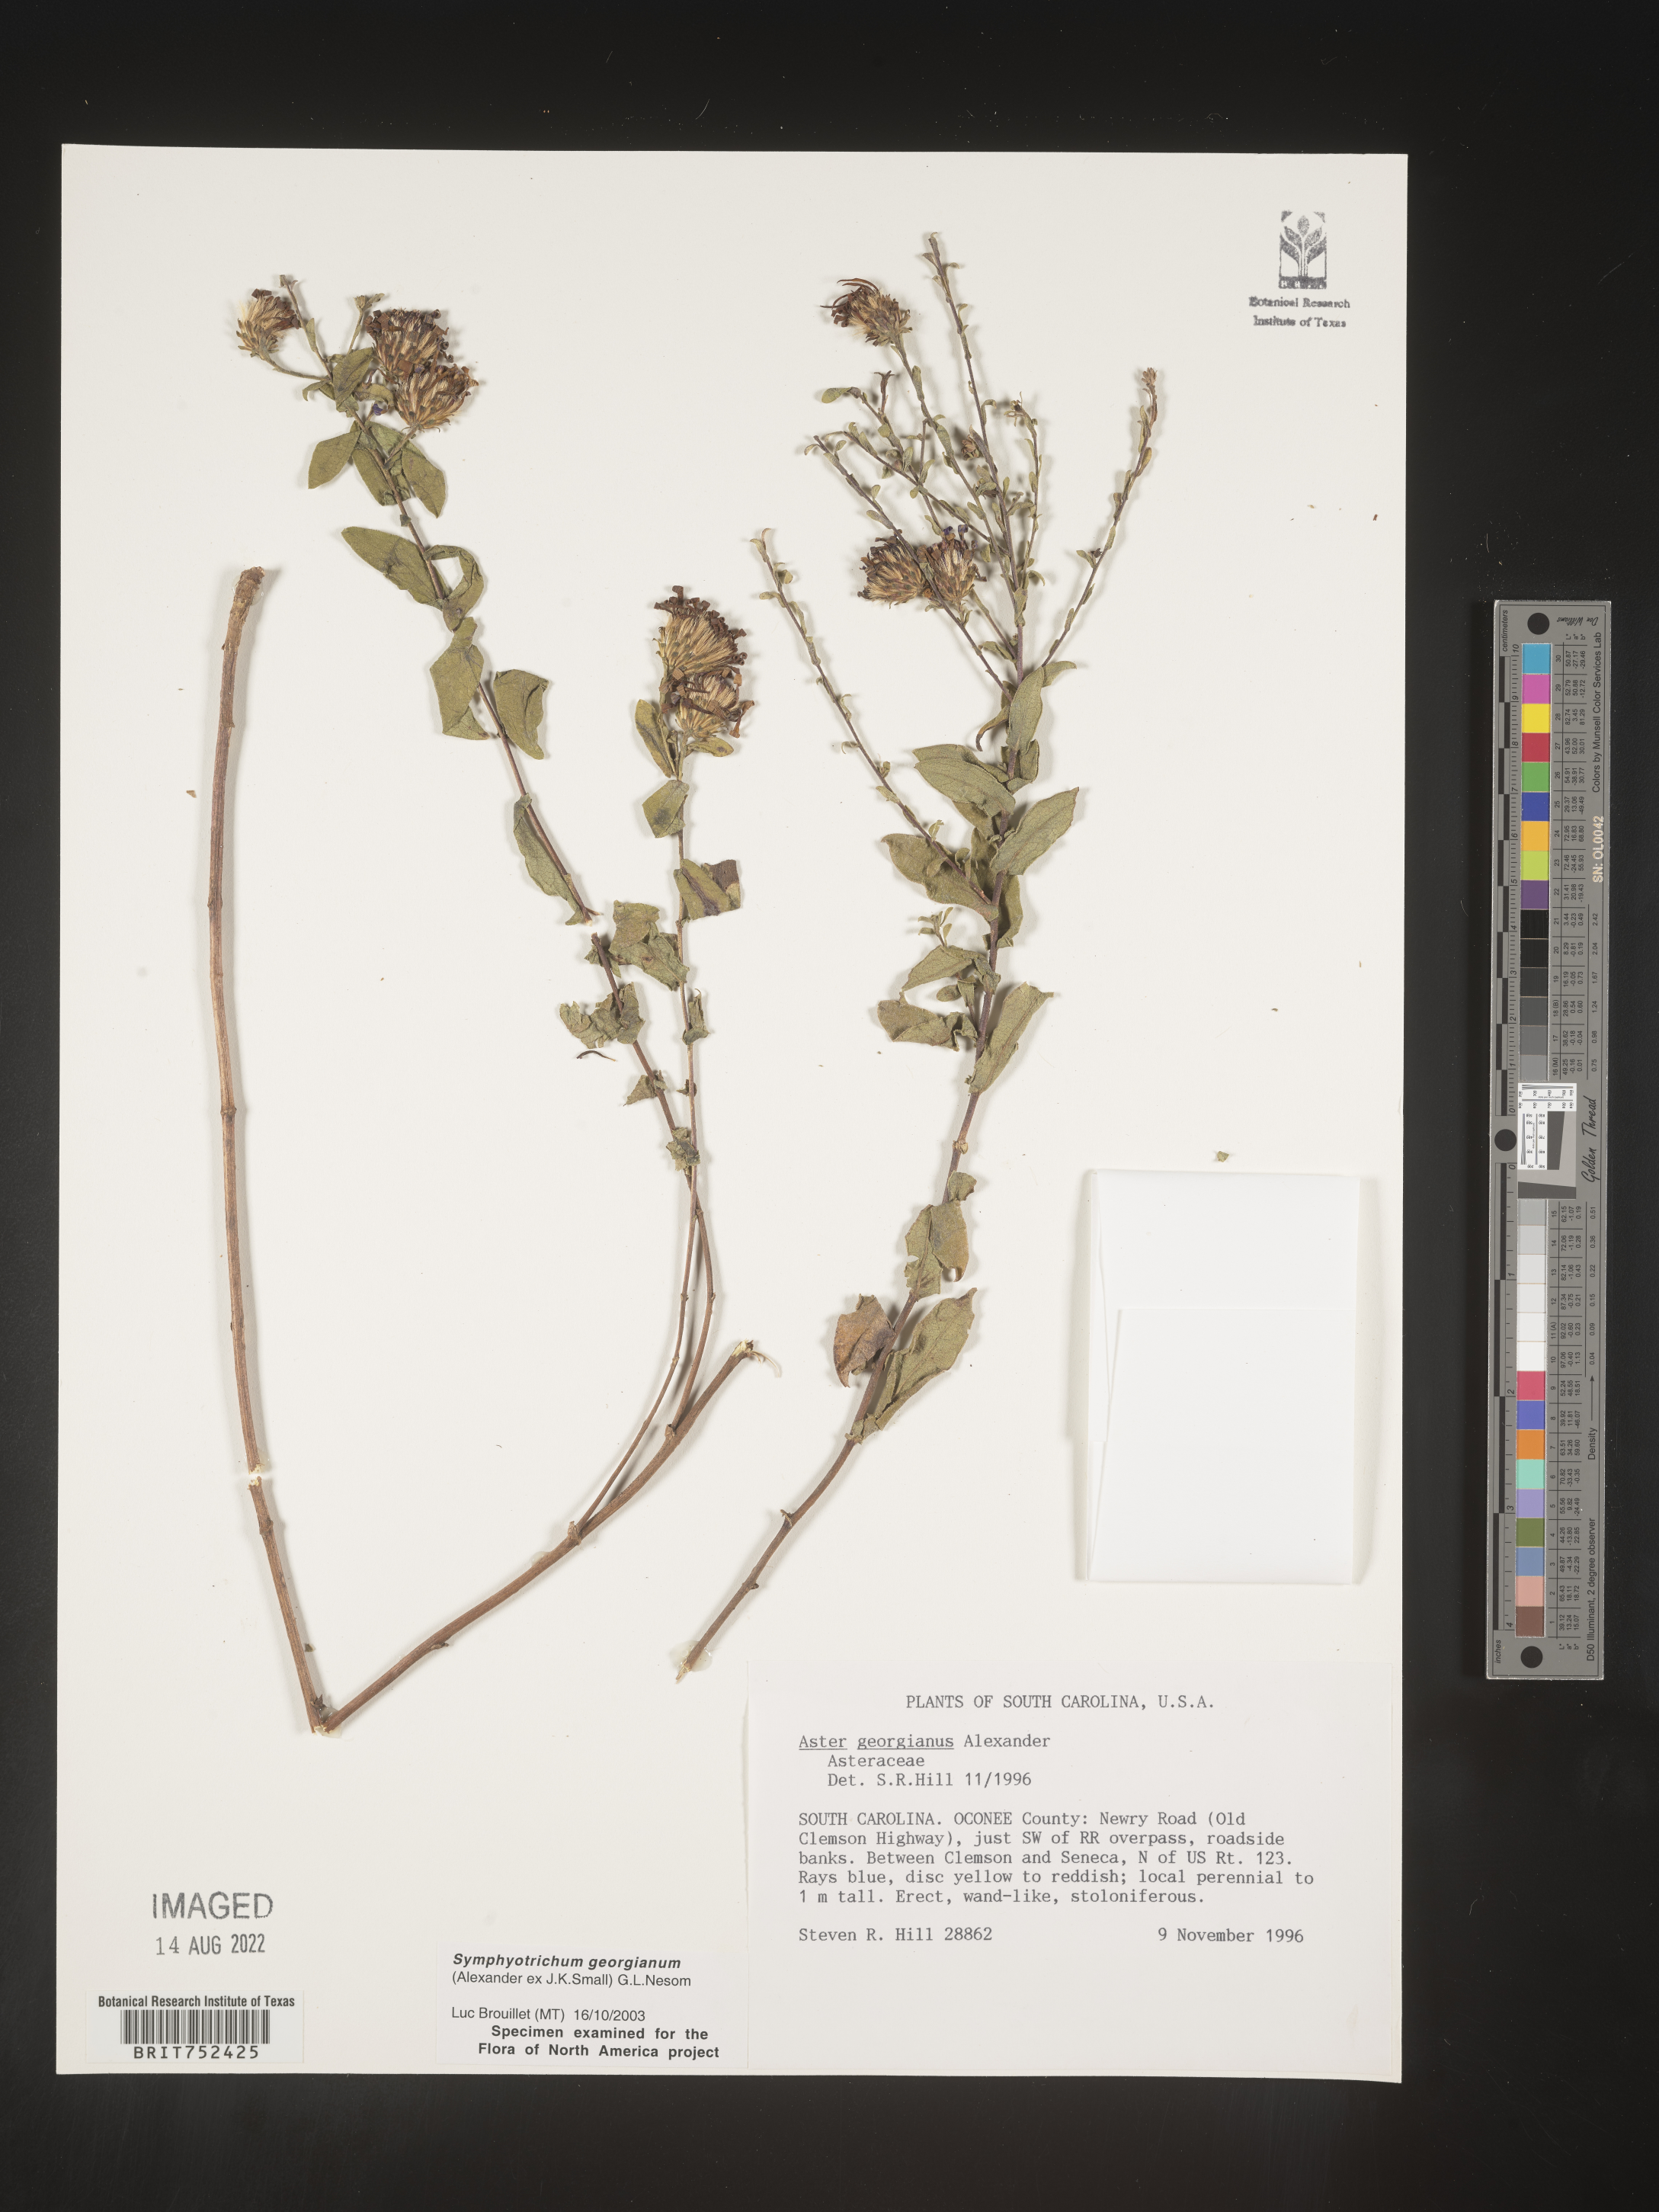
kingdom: Plantae
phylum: Tracheophyta
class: Magnoliopsida
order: Asterales
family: Asteraceae
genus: Symphyotrichum
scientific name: Symphyotrichum georgianum
